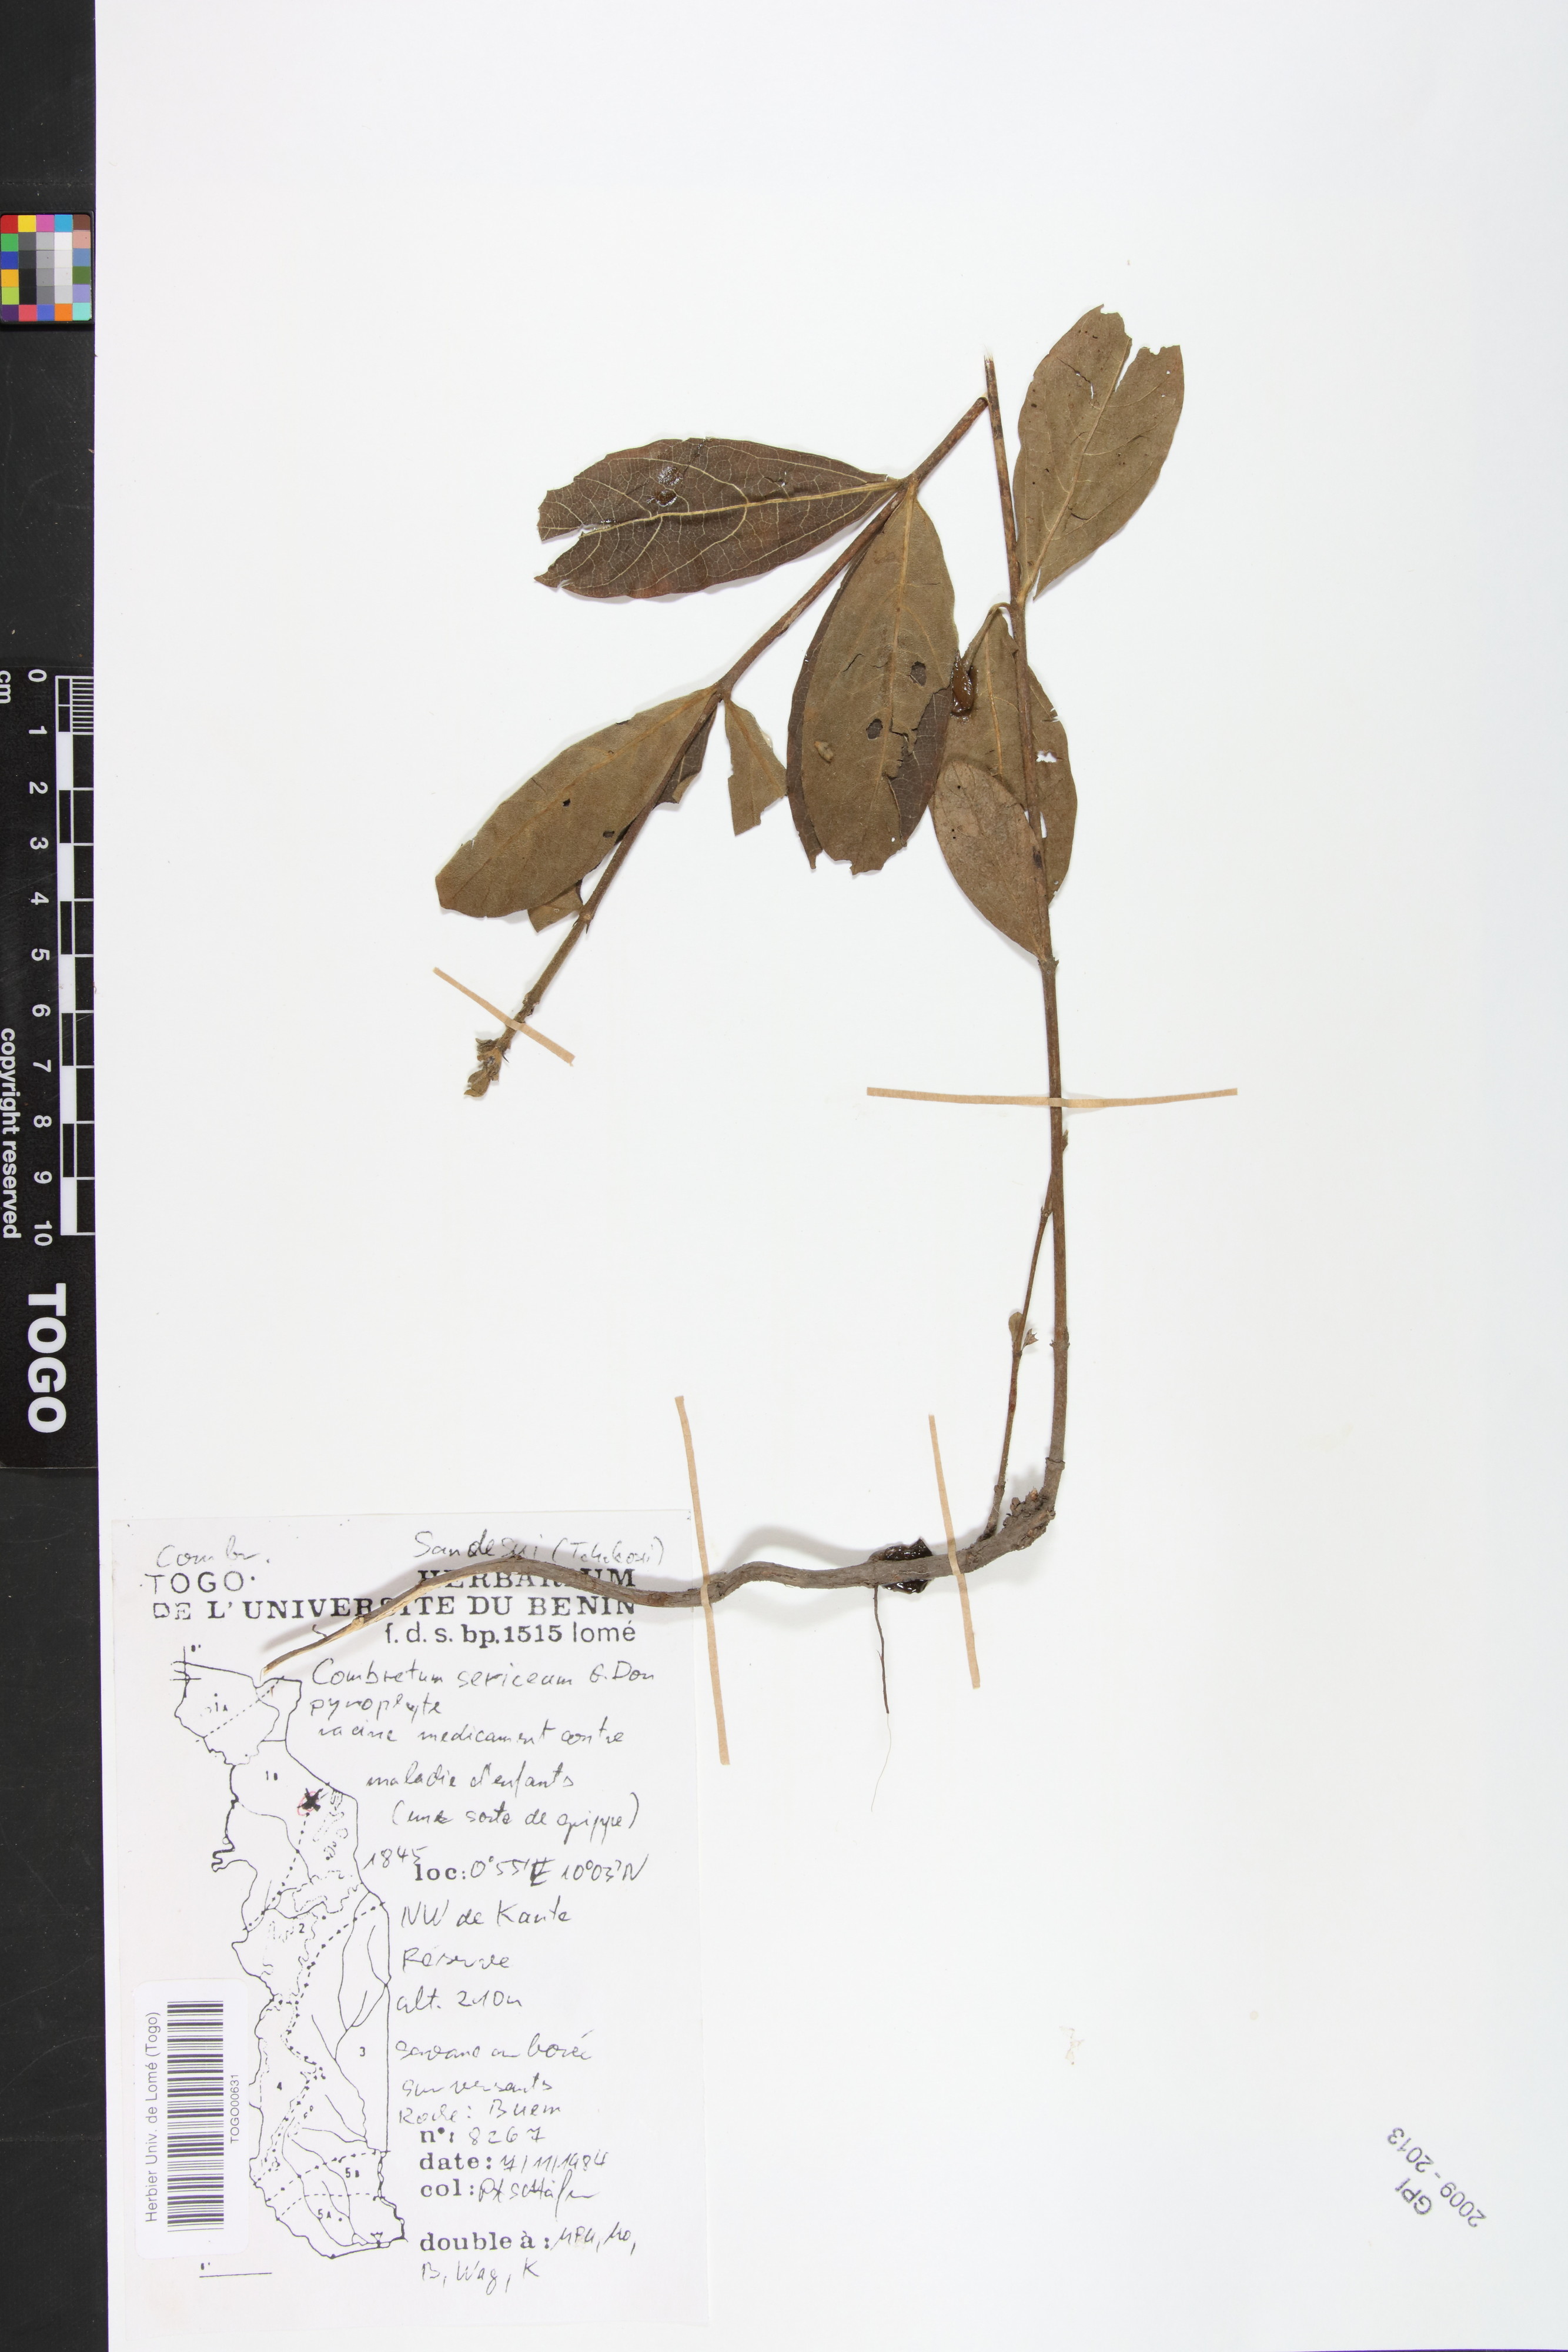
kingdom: Plantae
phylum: Tracheophyta
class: Magnoliopsida
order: Myrtales
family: Combretaceae
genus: Combretum
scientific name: Combretum sericeum
